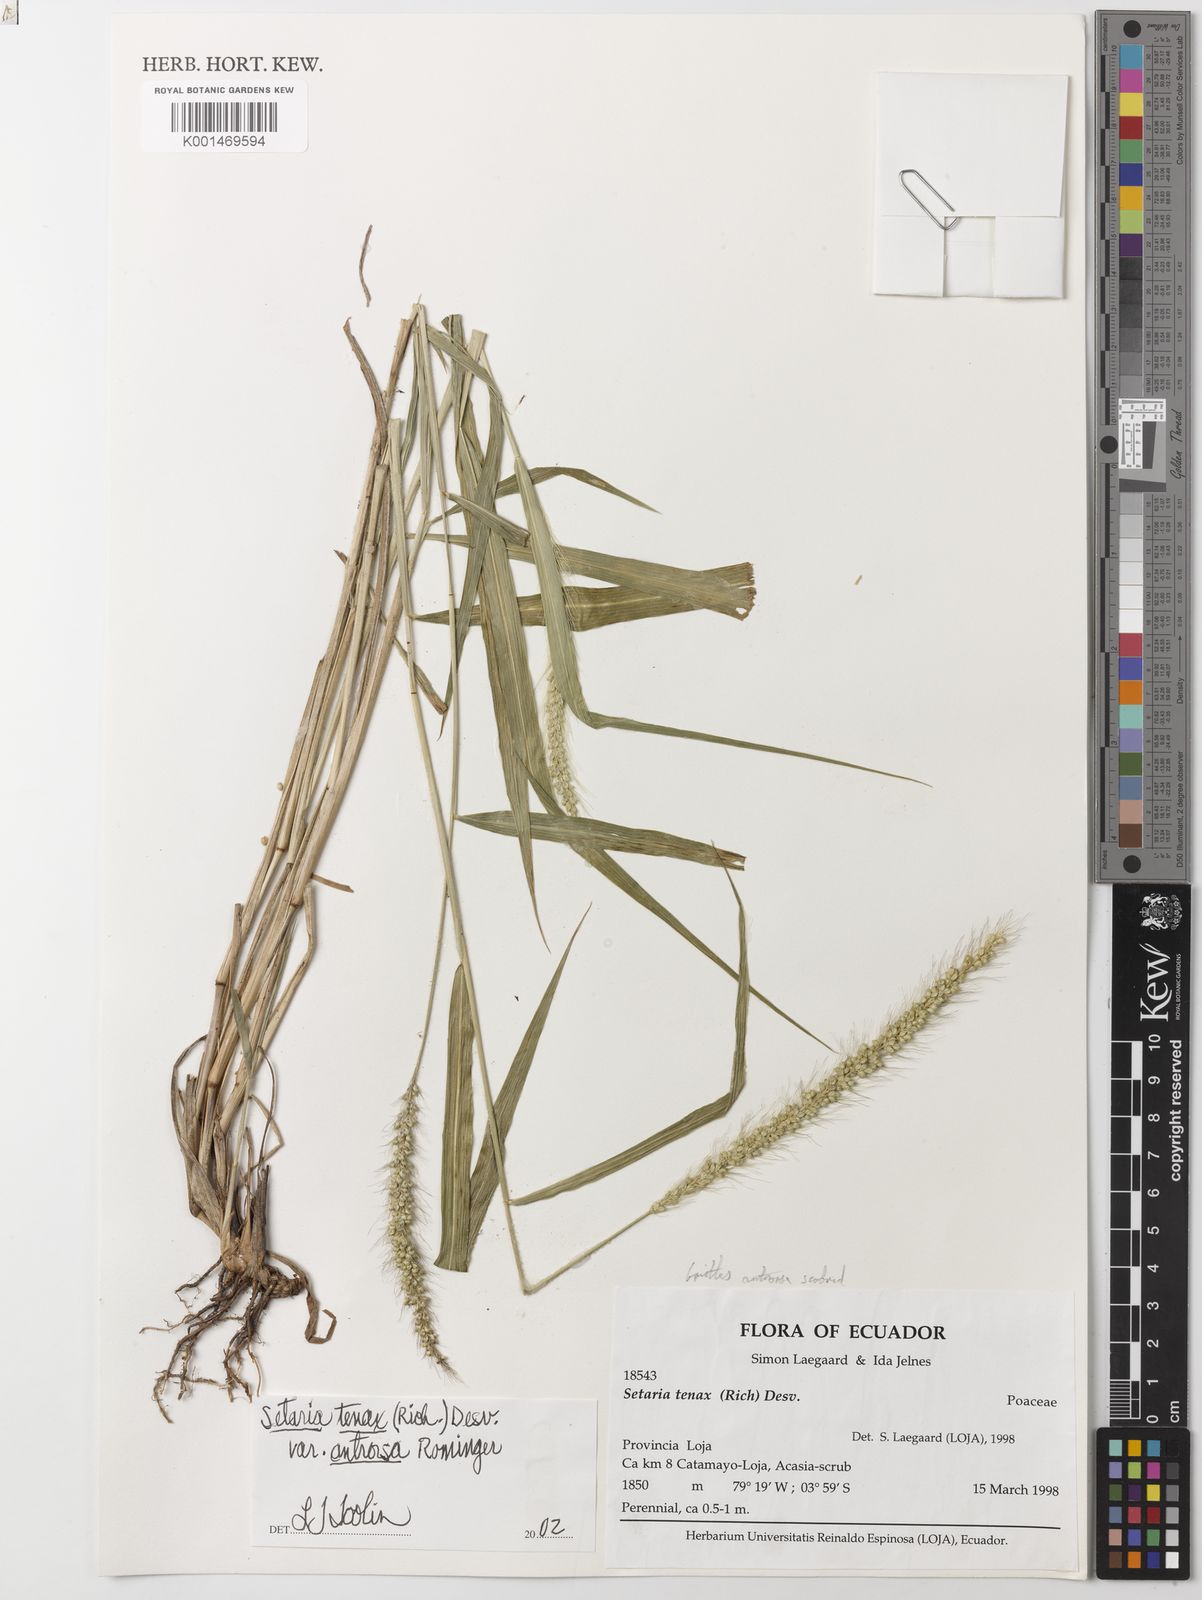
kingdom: Plantae
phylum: Tracheophyta
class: Liliopsida
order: Poales
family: Poaceae
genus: Setaria
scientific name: Setaria tenax
